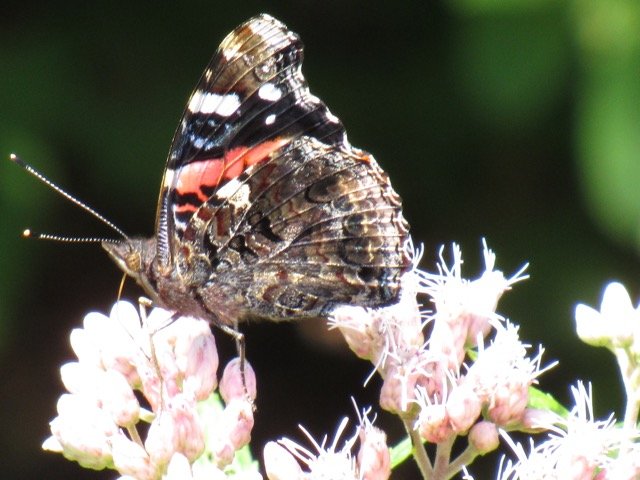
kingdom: Animalia
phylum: Arthropoda
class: Insecta
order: Lepidoptera
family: Nymphalidae
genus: Vanessa
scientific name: Vanessa atalanta
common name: Red Admiral
